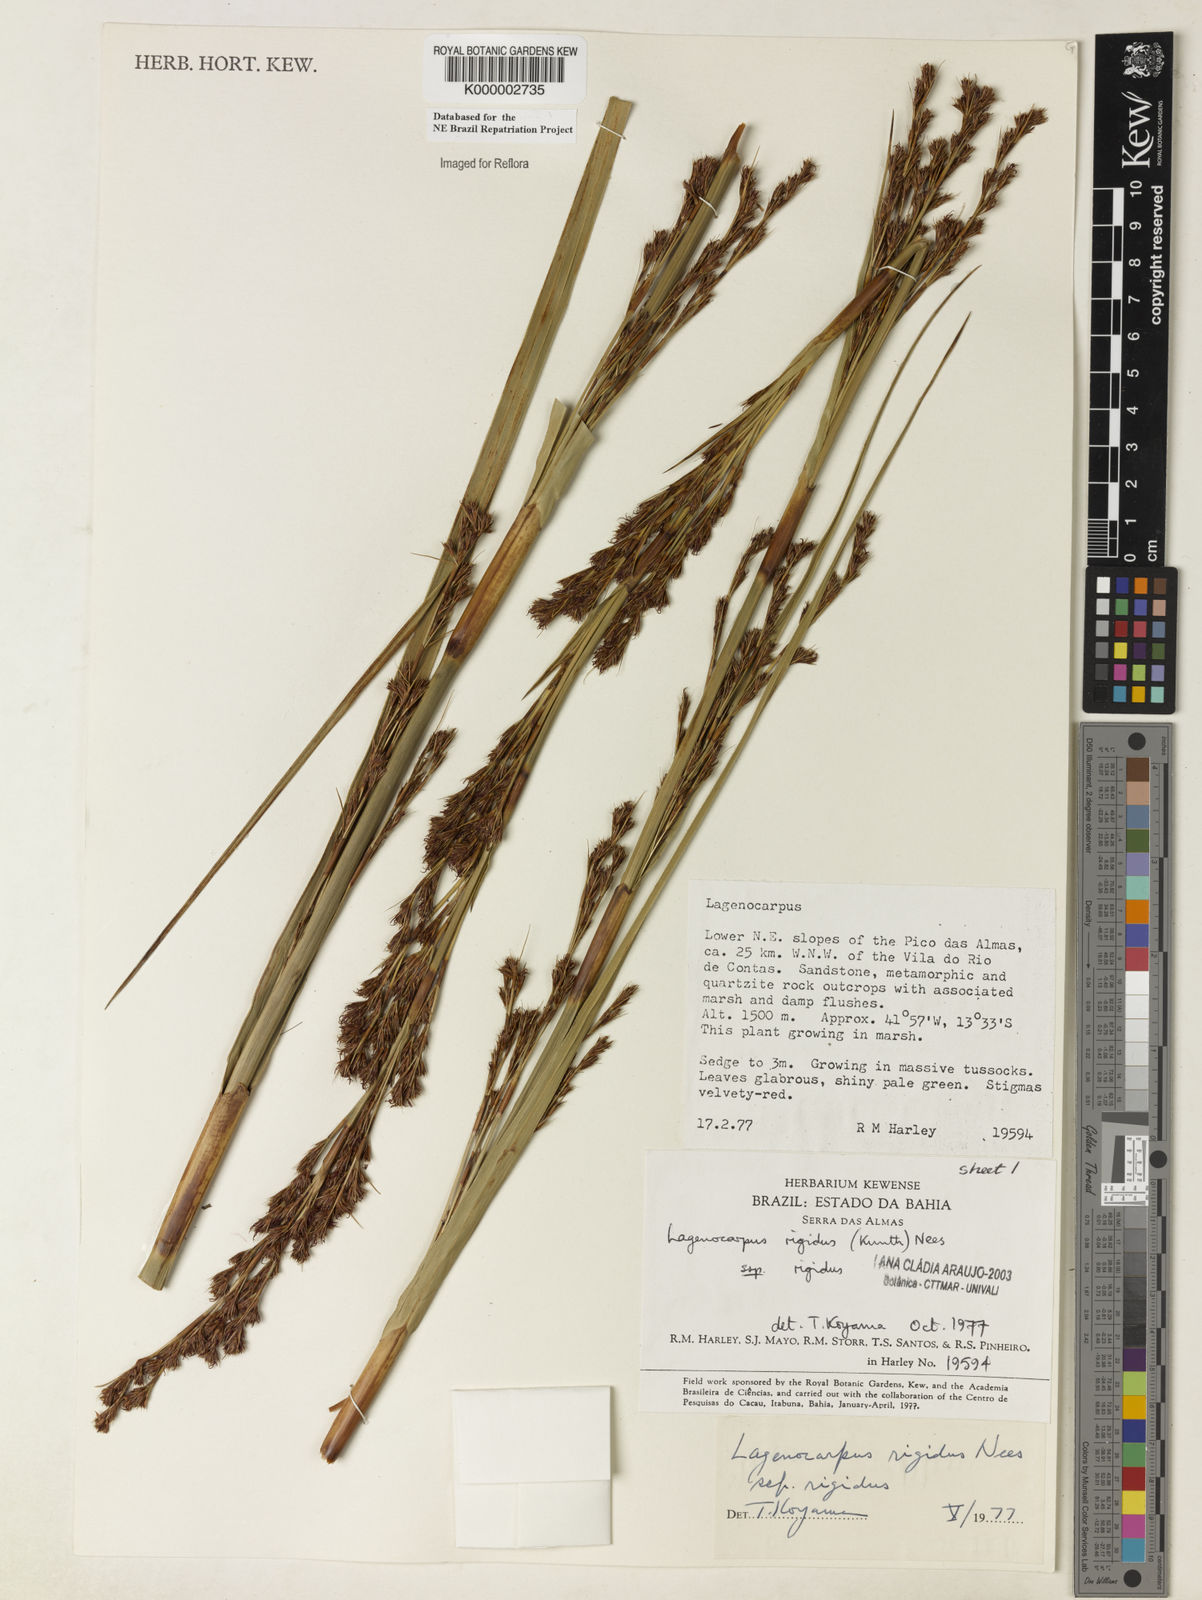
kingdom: Plantae
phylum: Tracheophyta
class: Liliopsida
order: Poales
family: Cyperaceae
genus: Lagenocarpus
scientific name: Lagenocarpus rigidus
